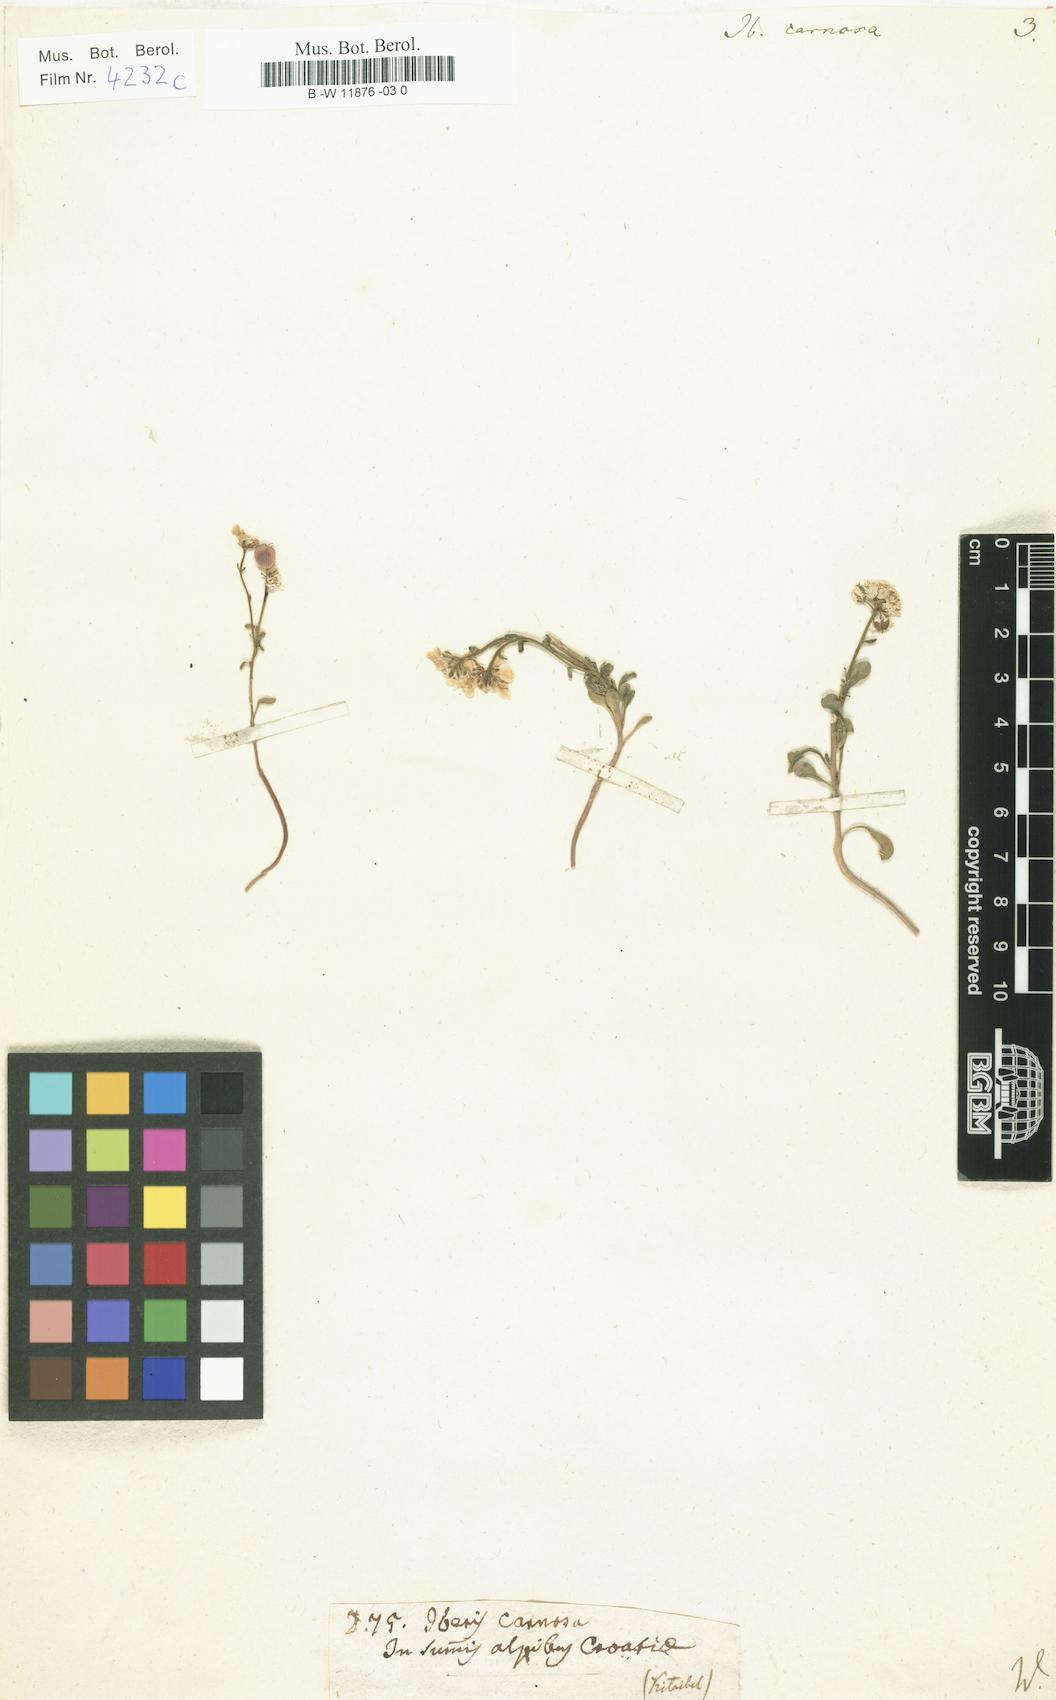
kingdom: Plantae
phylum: Tracheophyta
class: Magnoliopsida
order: Brassicales
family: Brassicaceae
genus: Iberis
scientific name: Iberis carnosa
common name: Pruit's candytuft
